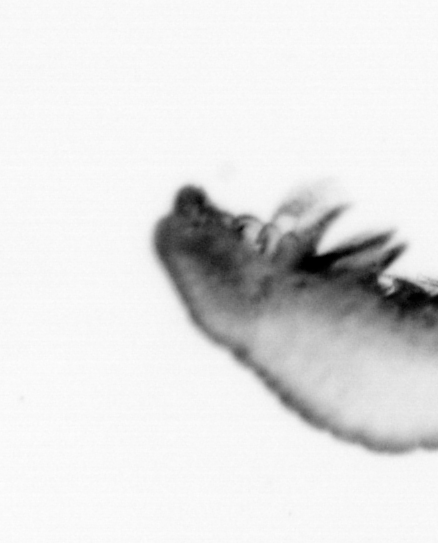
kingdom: Animalia
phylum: Annelida
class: Polychaeta
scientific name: Polychaeta
